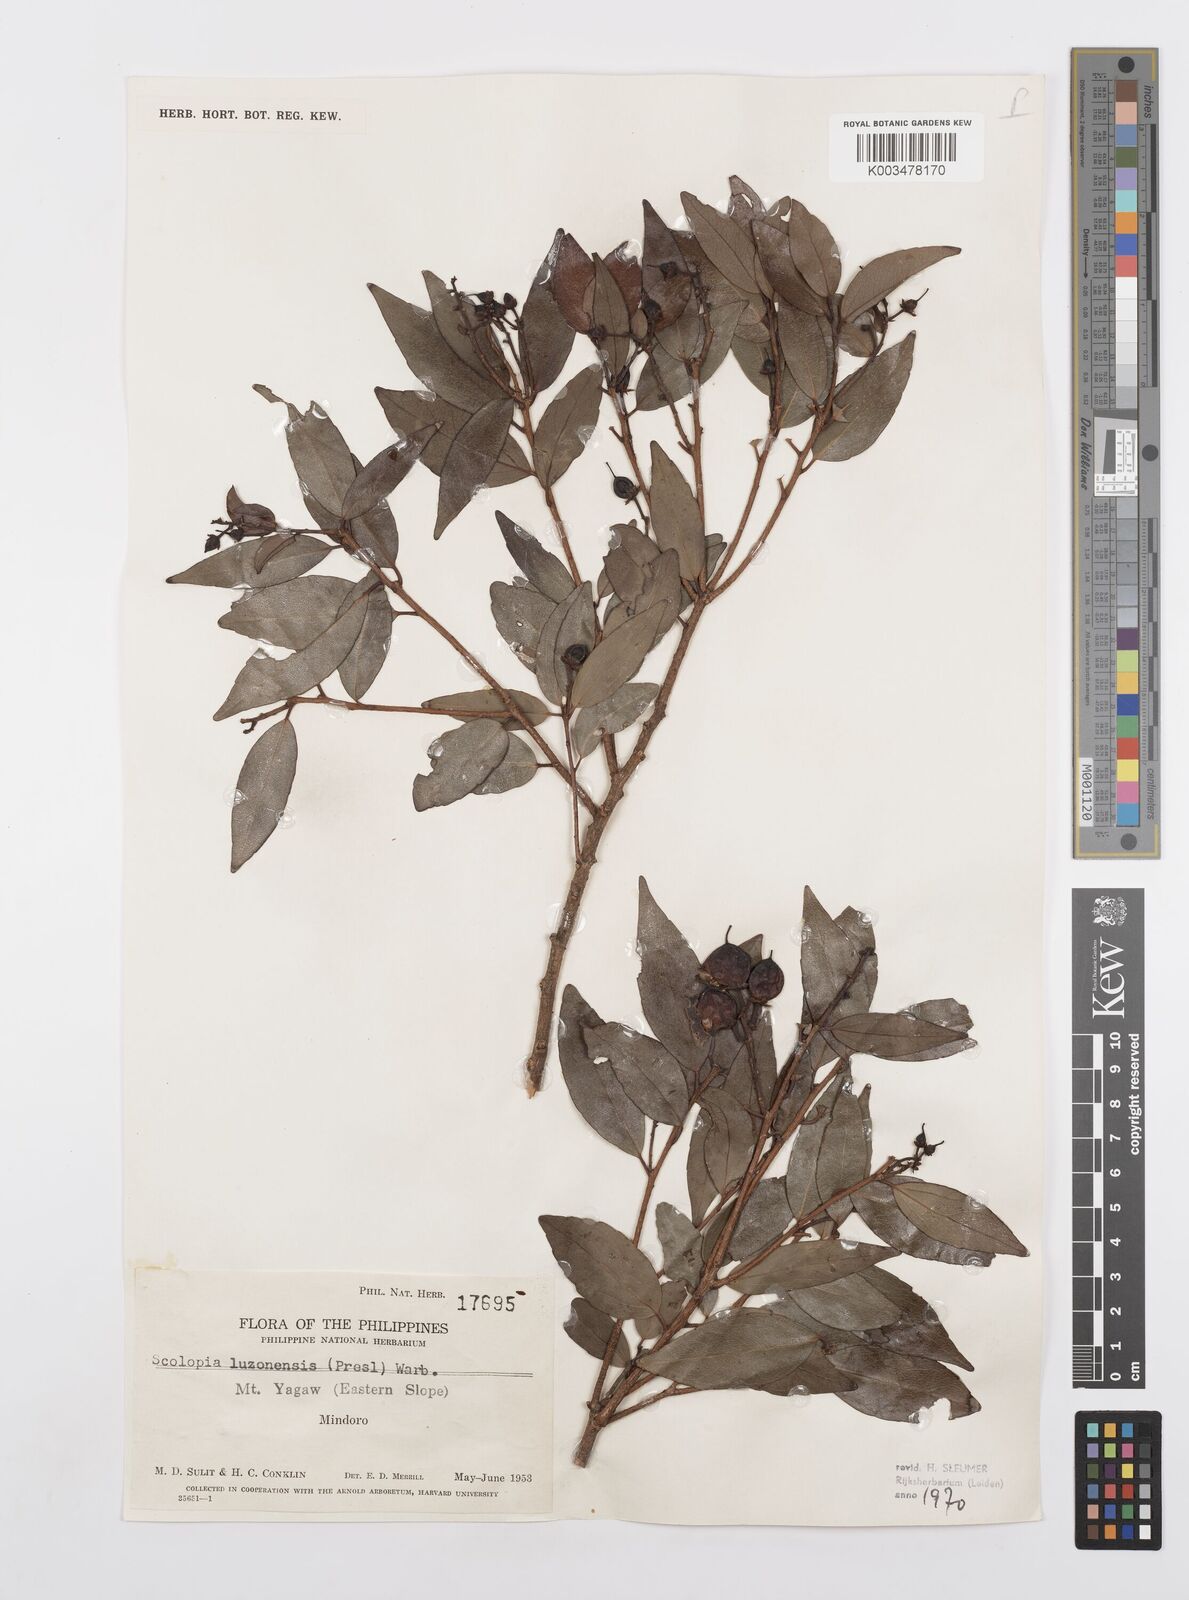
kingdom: Plantae
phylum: Tracheophyta
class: Magnoliopsida
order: Malpighiales
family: Salicaceae
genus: Scolopia
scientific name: Scolopia luzonensis
